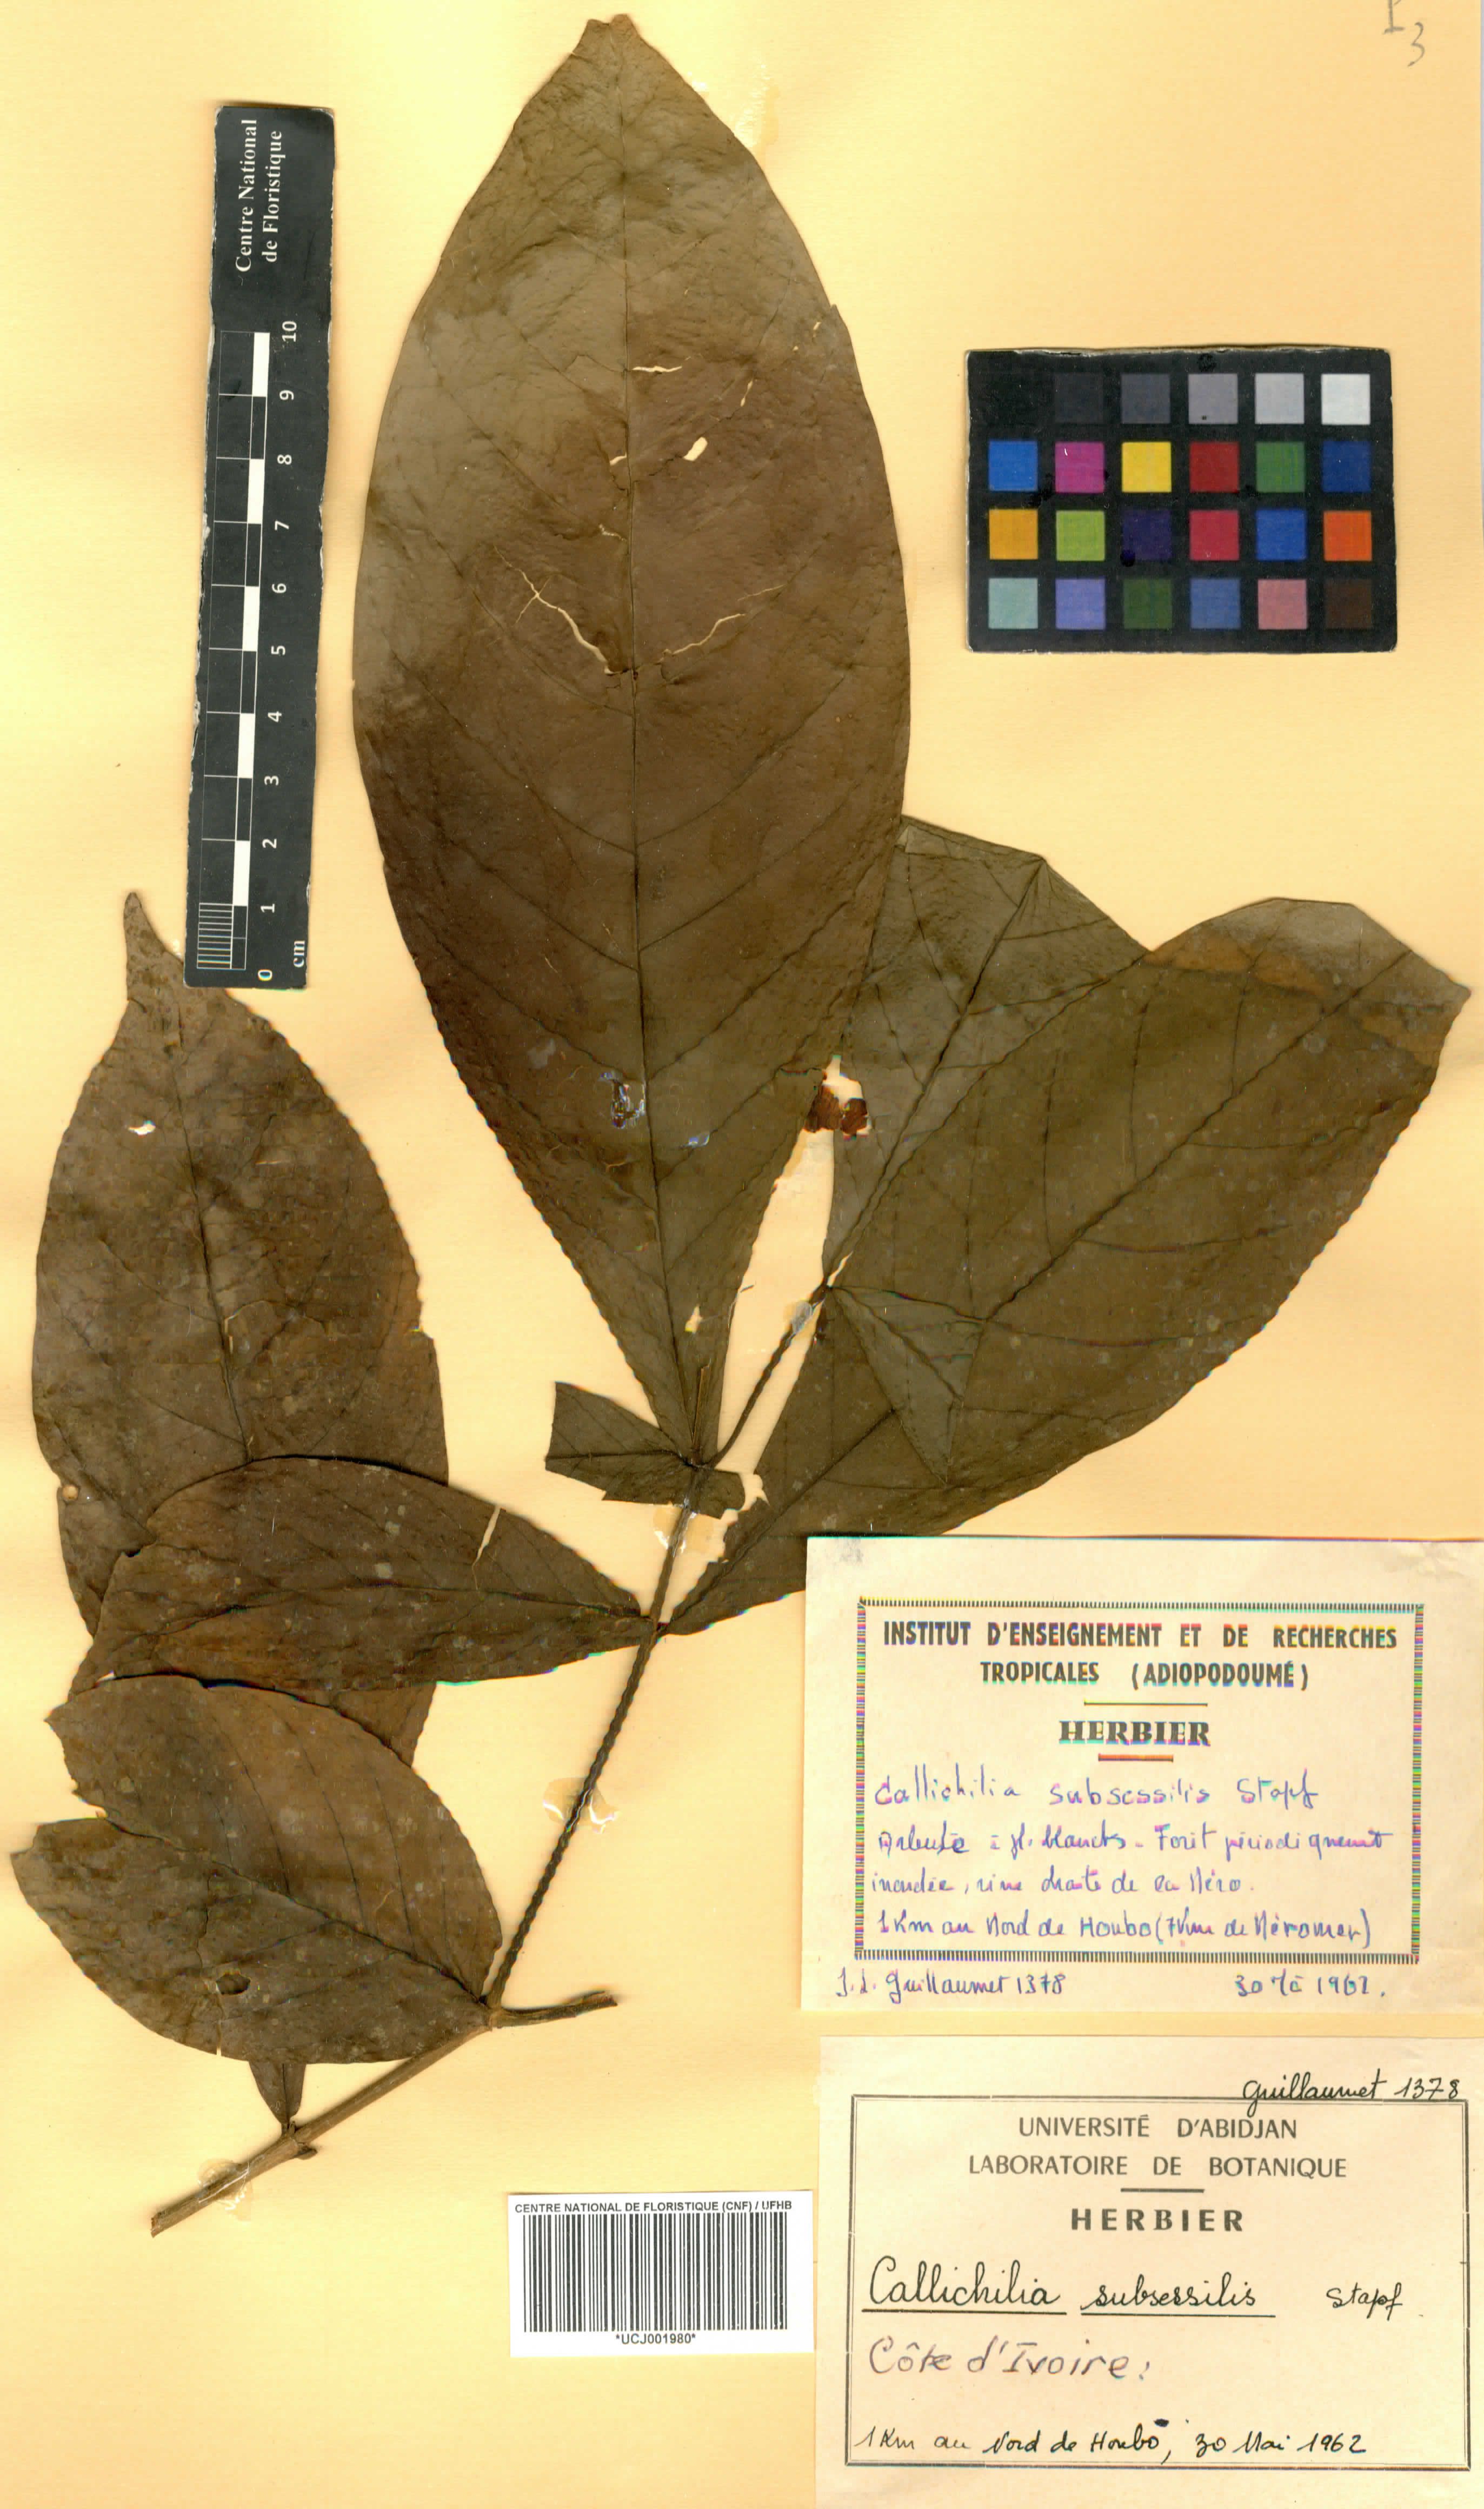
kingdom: Plantae
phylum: Tracheophyta
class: Magnoliopsida
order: Gentianales
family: Apocynaceae
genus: Callichilia
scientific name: Callichilia subsessilis
